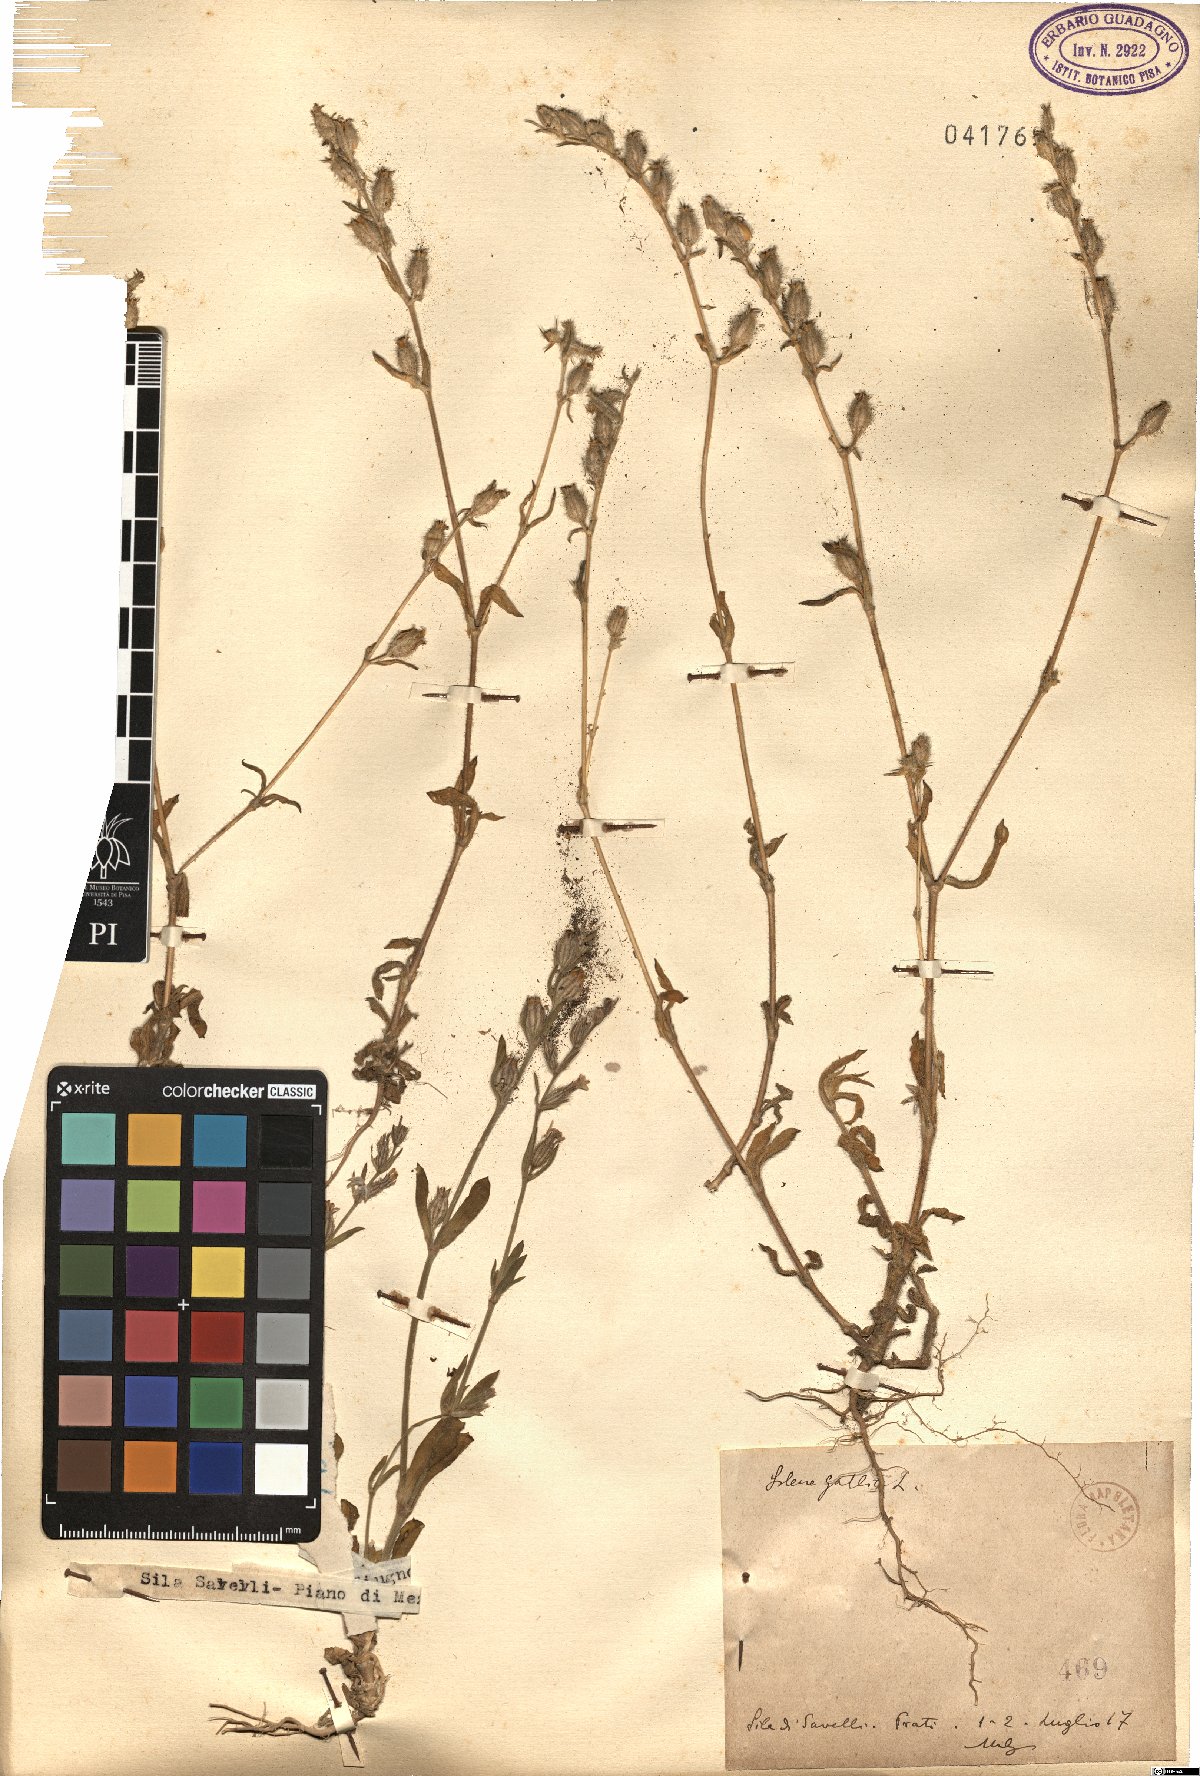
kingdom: Plantae
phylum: Tracheophyta
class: Magnoliopsida
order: Caryophyllales
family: Caryophyllaceae
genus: Silene
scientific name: Silene gallica
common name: Small-flowered catchfly
